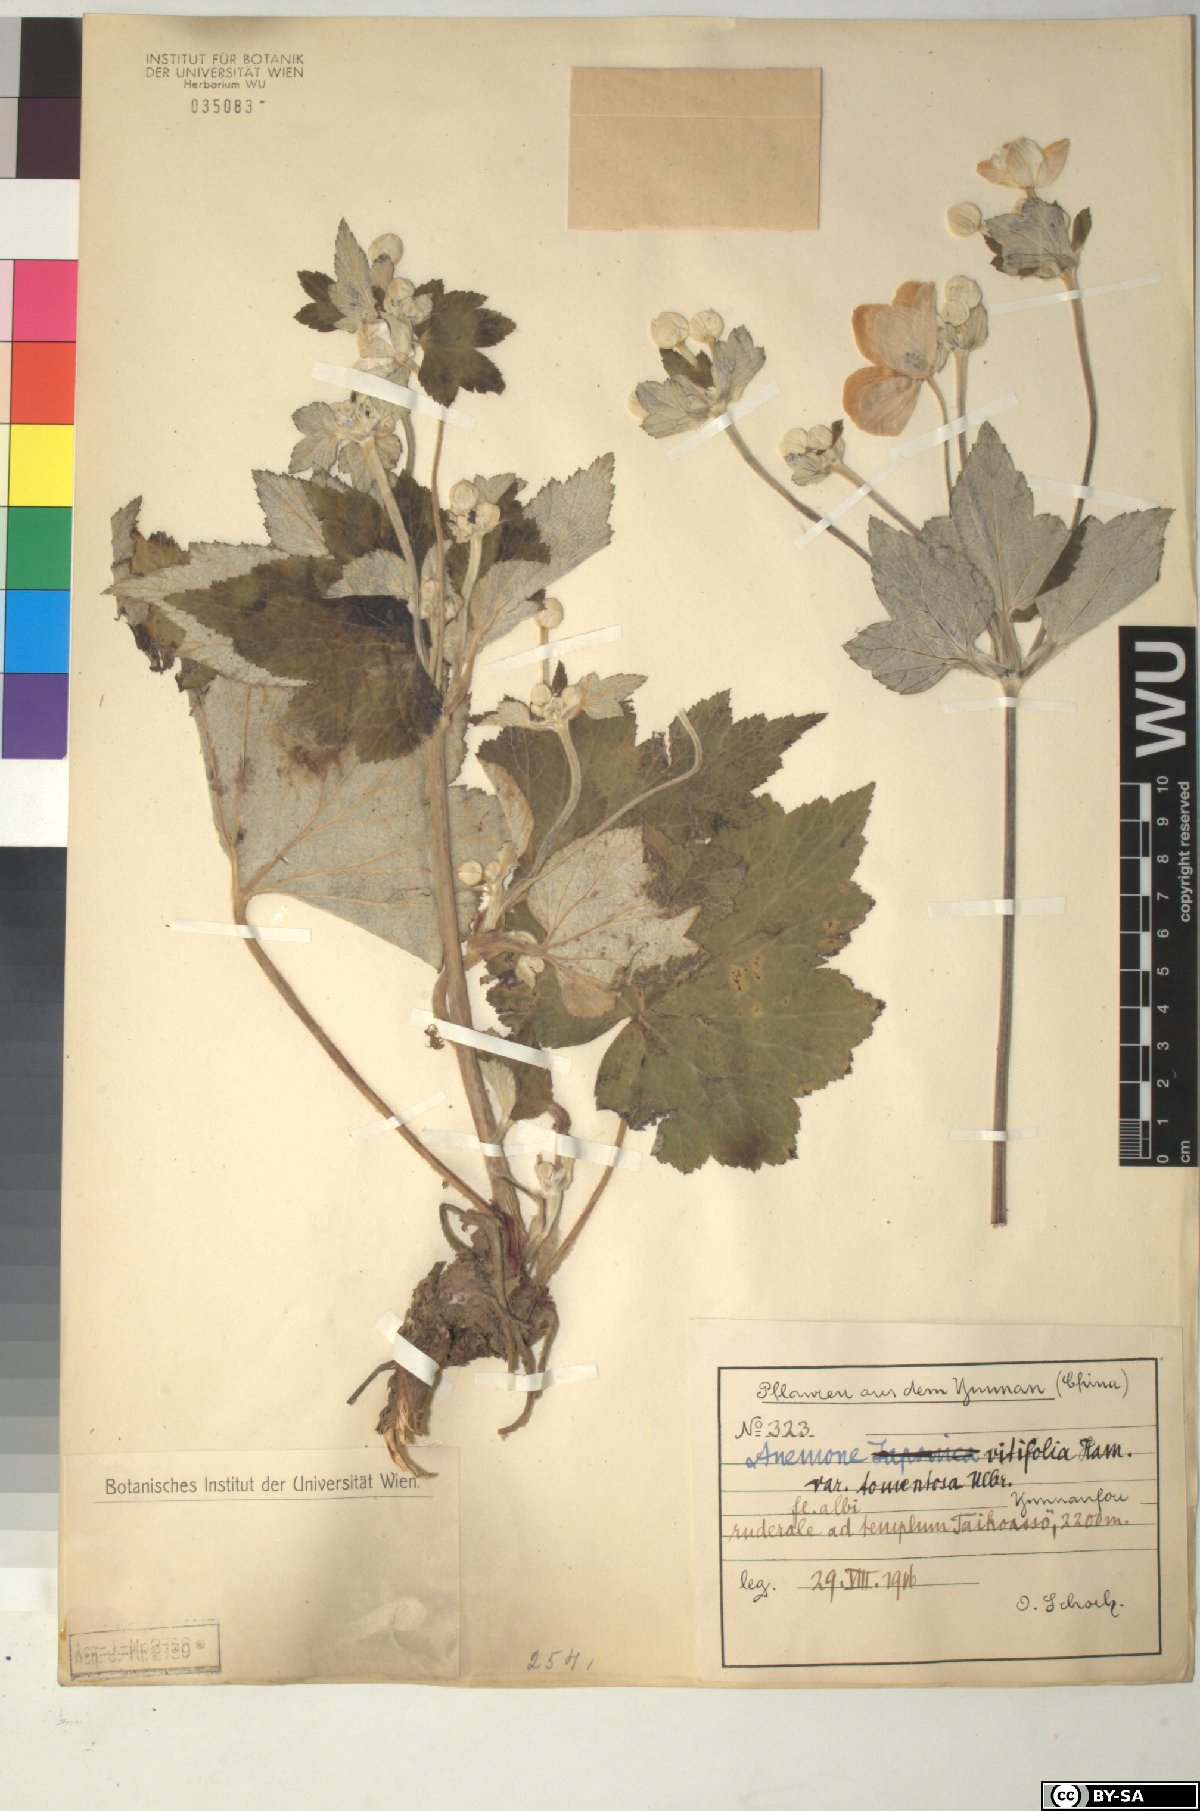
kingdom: Plantae
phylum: Tracheophyta
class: Magnoliopsida
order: Ranunculales
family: Ranunculaceae
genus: Eriocapitella
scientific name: Eriocapitella vitifolia
